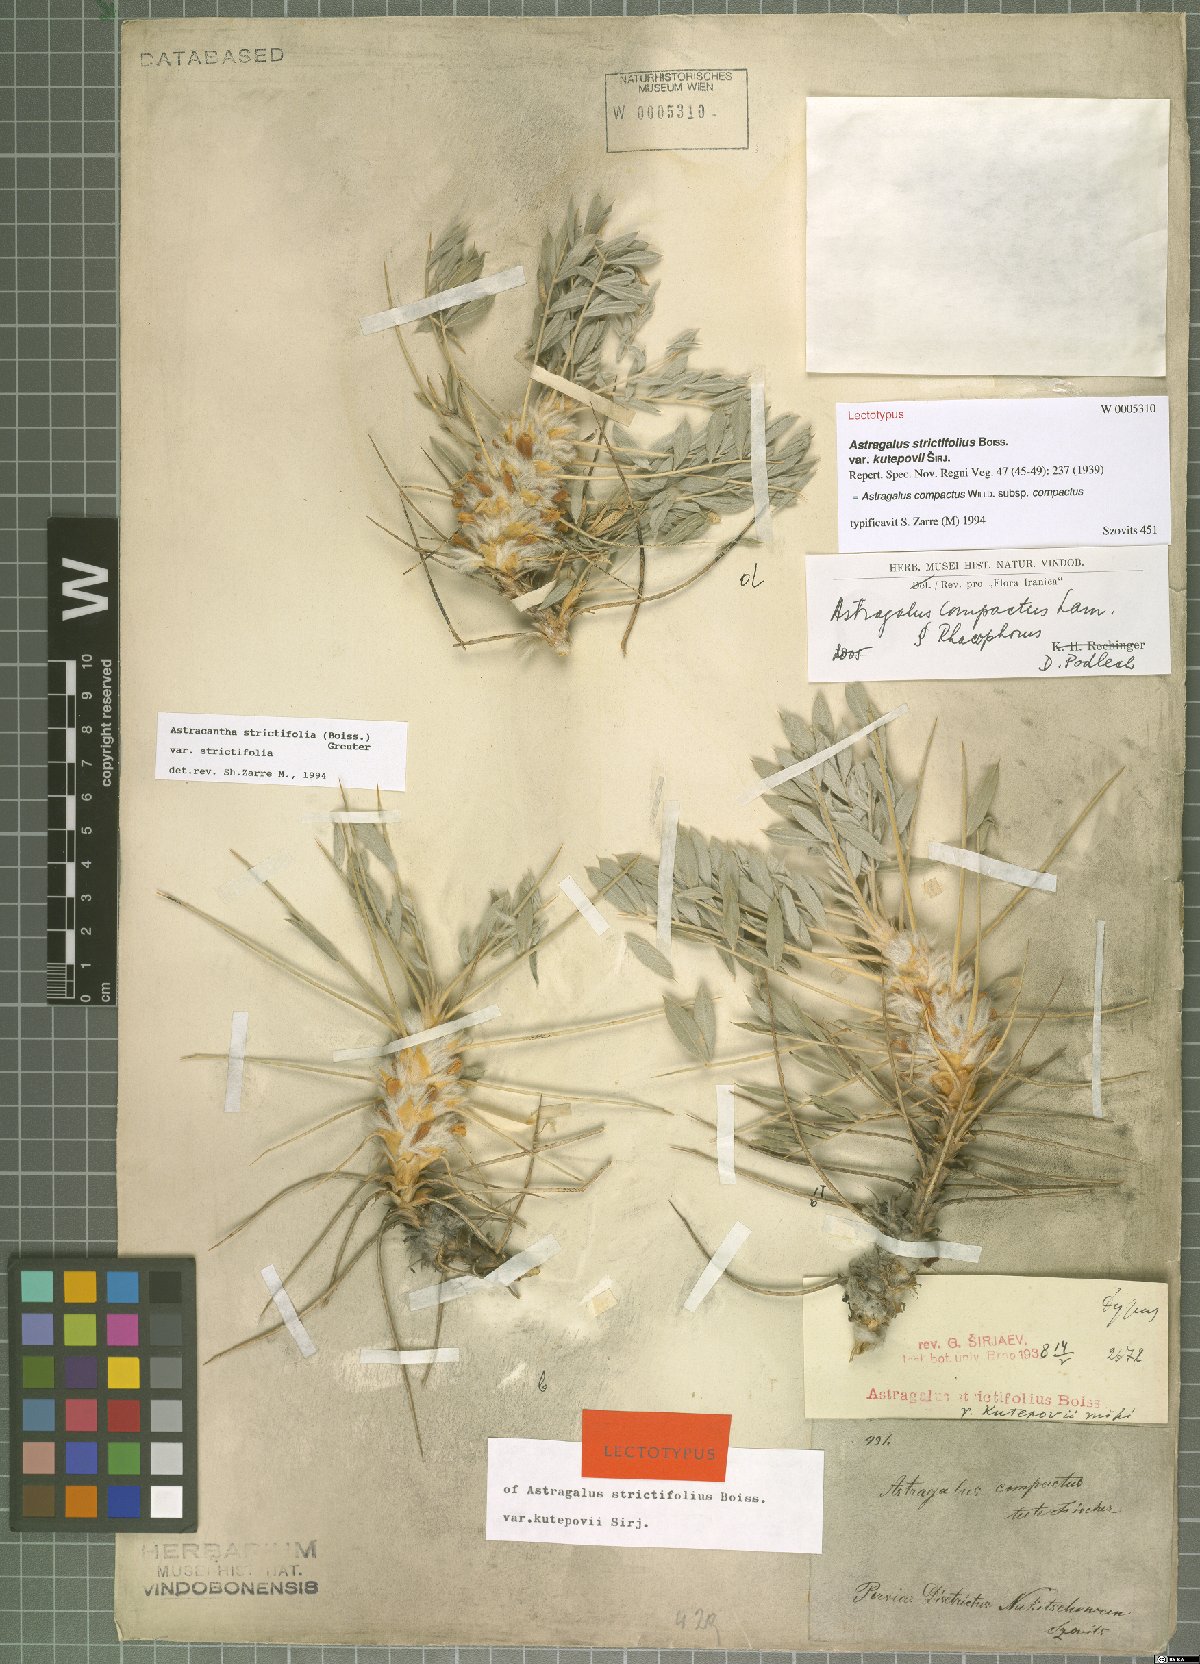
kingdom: Plantae
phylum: Tracheophyta
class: Magnoliopsida
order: Fabales
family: Fabaceae
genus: Astragalus
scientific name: Astragalus compactus
